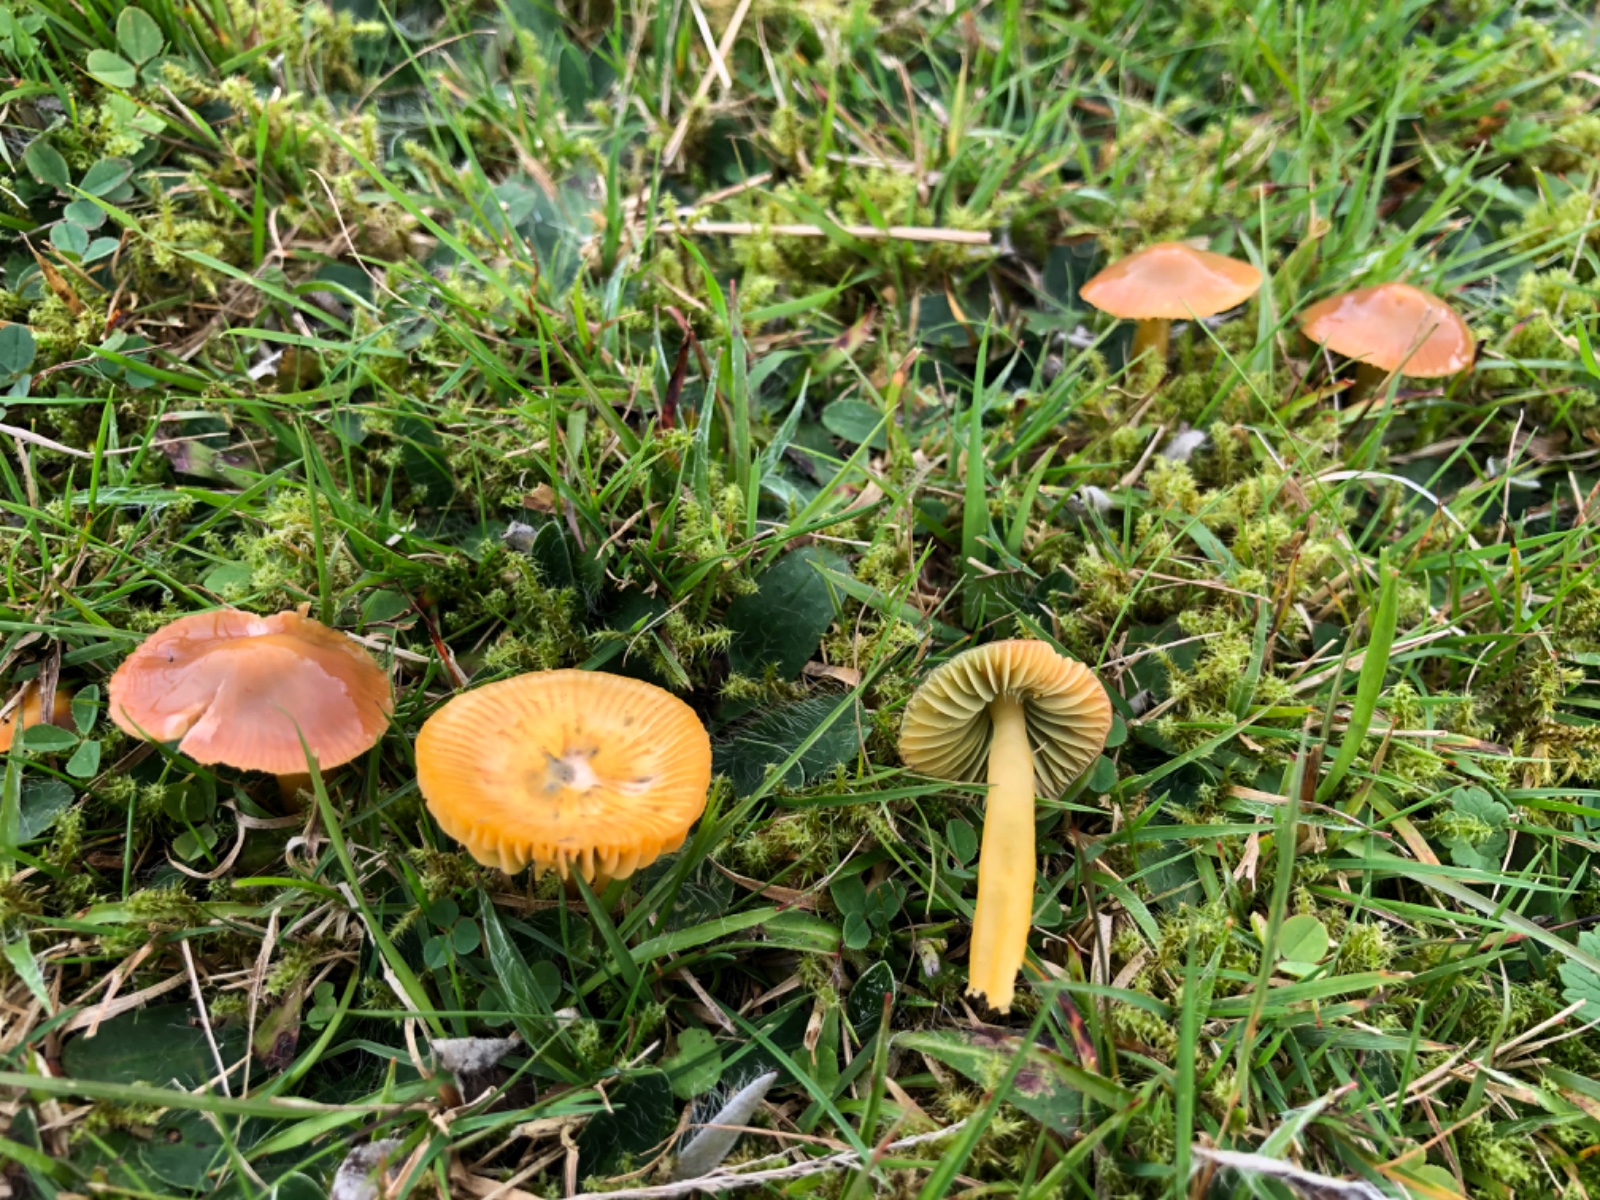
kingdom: Fungi
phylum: Basidiomycota
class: Agaricomycetes
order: Agaricales
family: Hygrophoraceae
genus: Gliophorus
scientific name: Gliophorus psittacinus
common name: papegøje-vokshat
